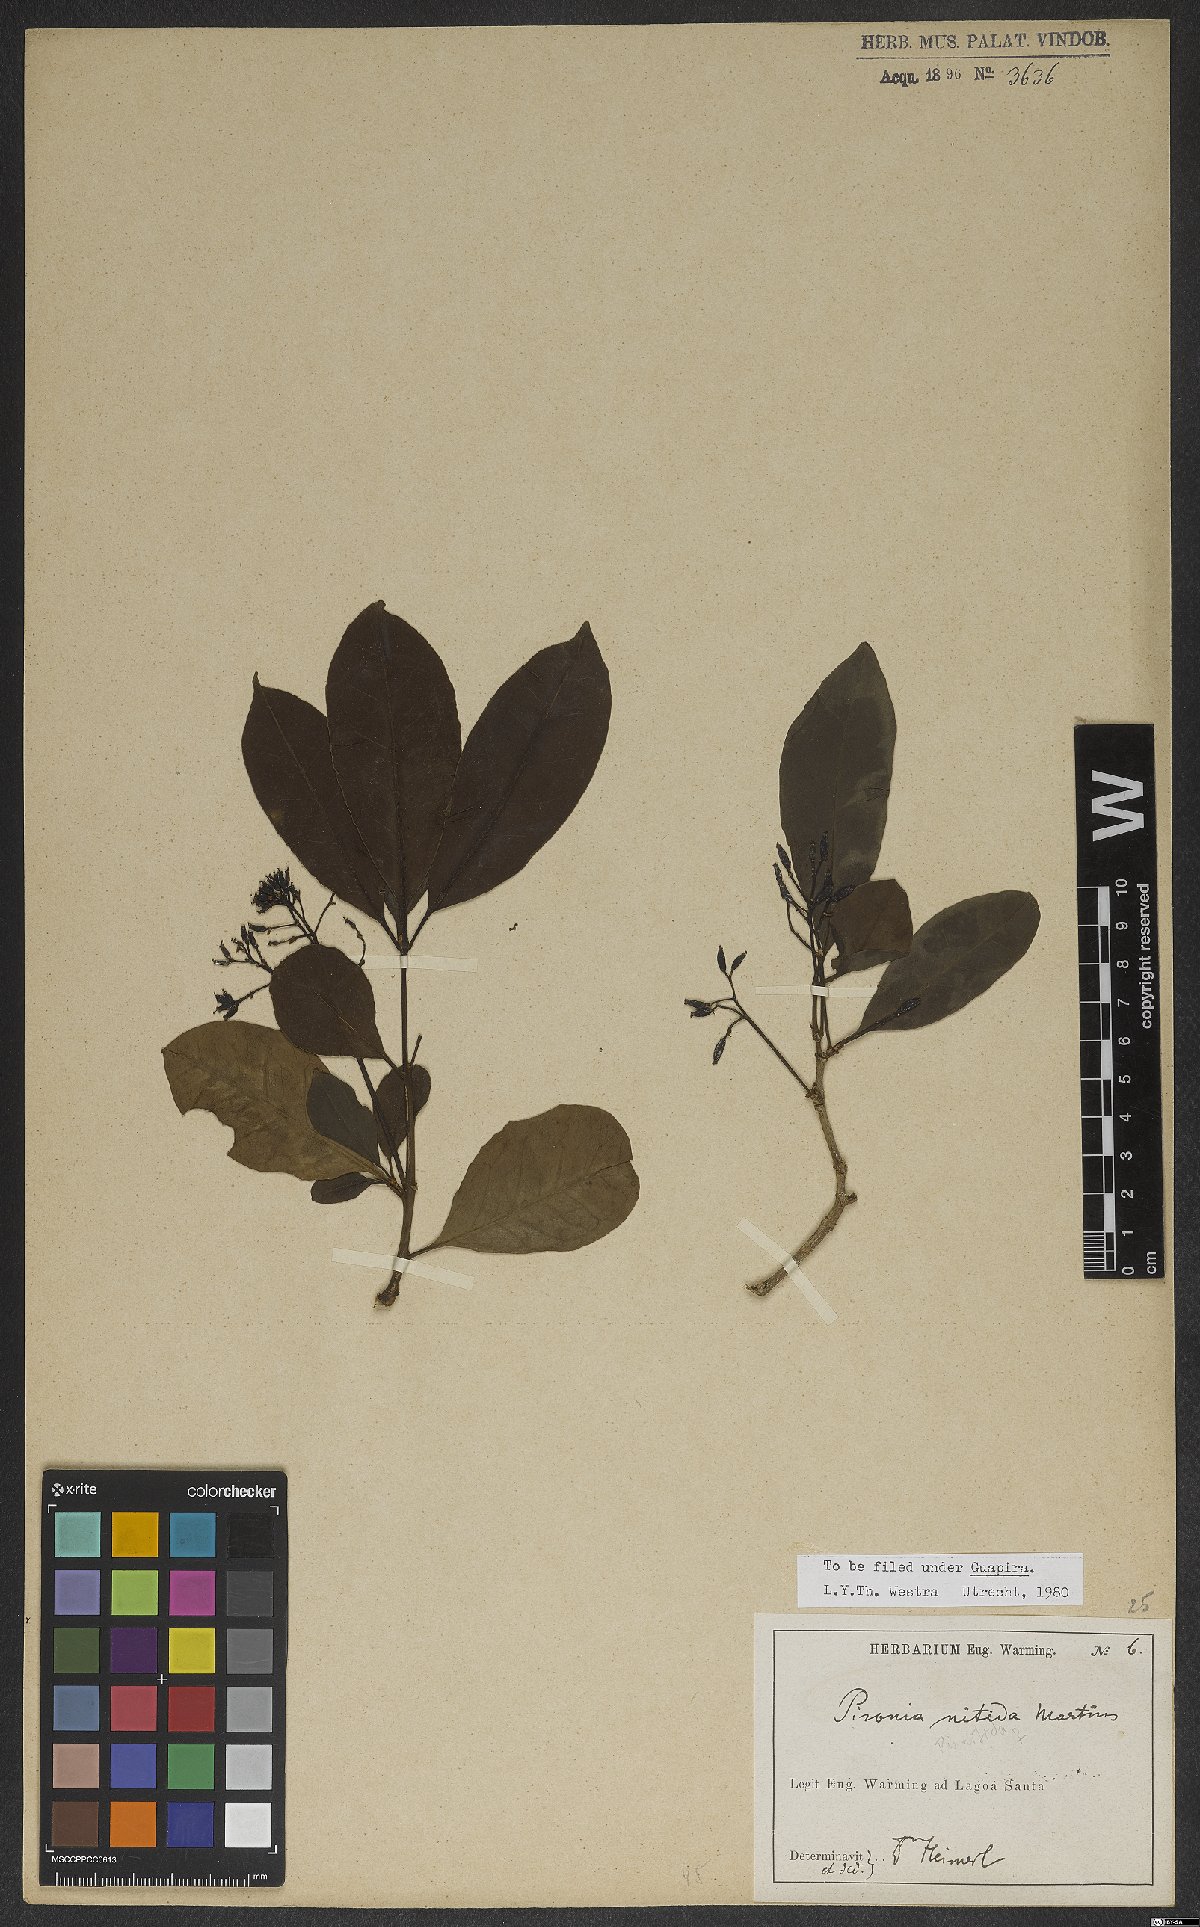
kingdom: Plantae
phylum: Tracheophyta
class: Magnoliopsida
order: Caryophyllales
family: Nyctaginaceae
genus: Guapira
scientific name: Guapira nitida
